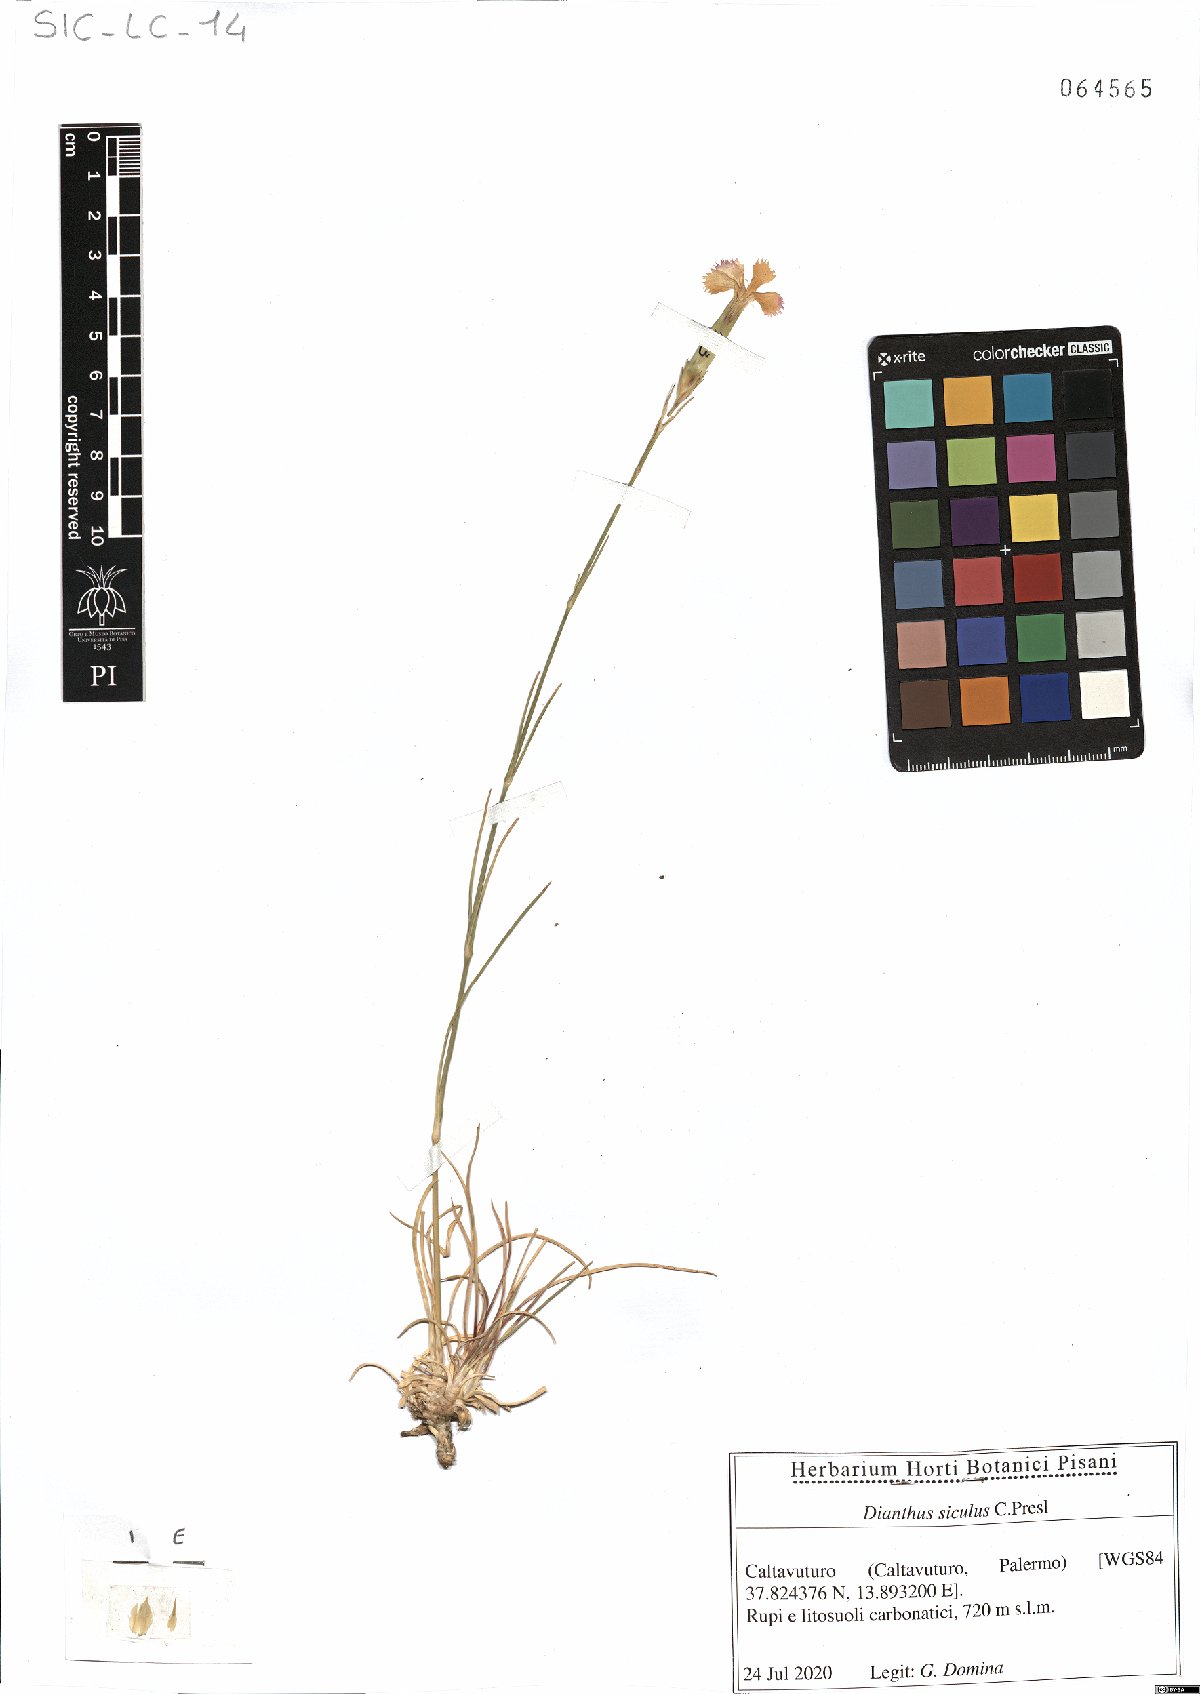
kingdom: Plantae
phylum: Tracheophyta
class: Magnoliopsida
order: Caryophyllales
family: Caryophyllaceae
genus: Dianthus
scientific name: Dianthus siculus
